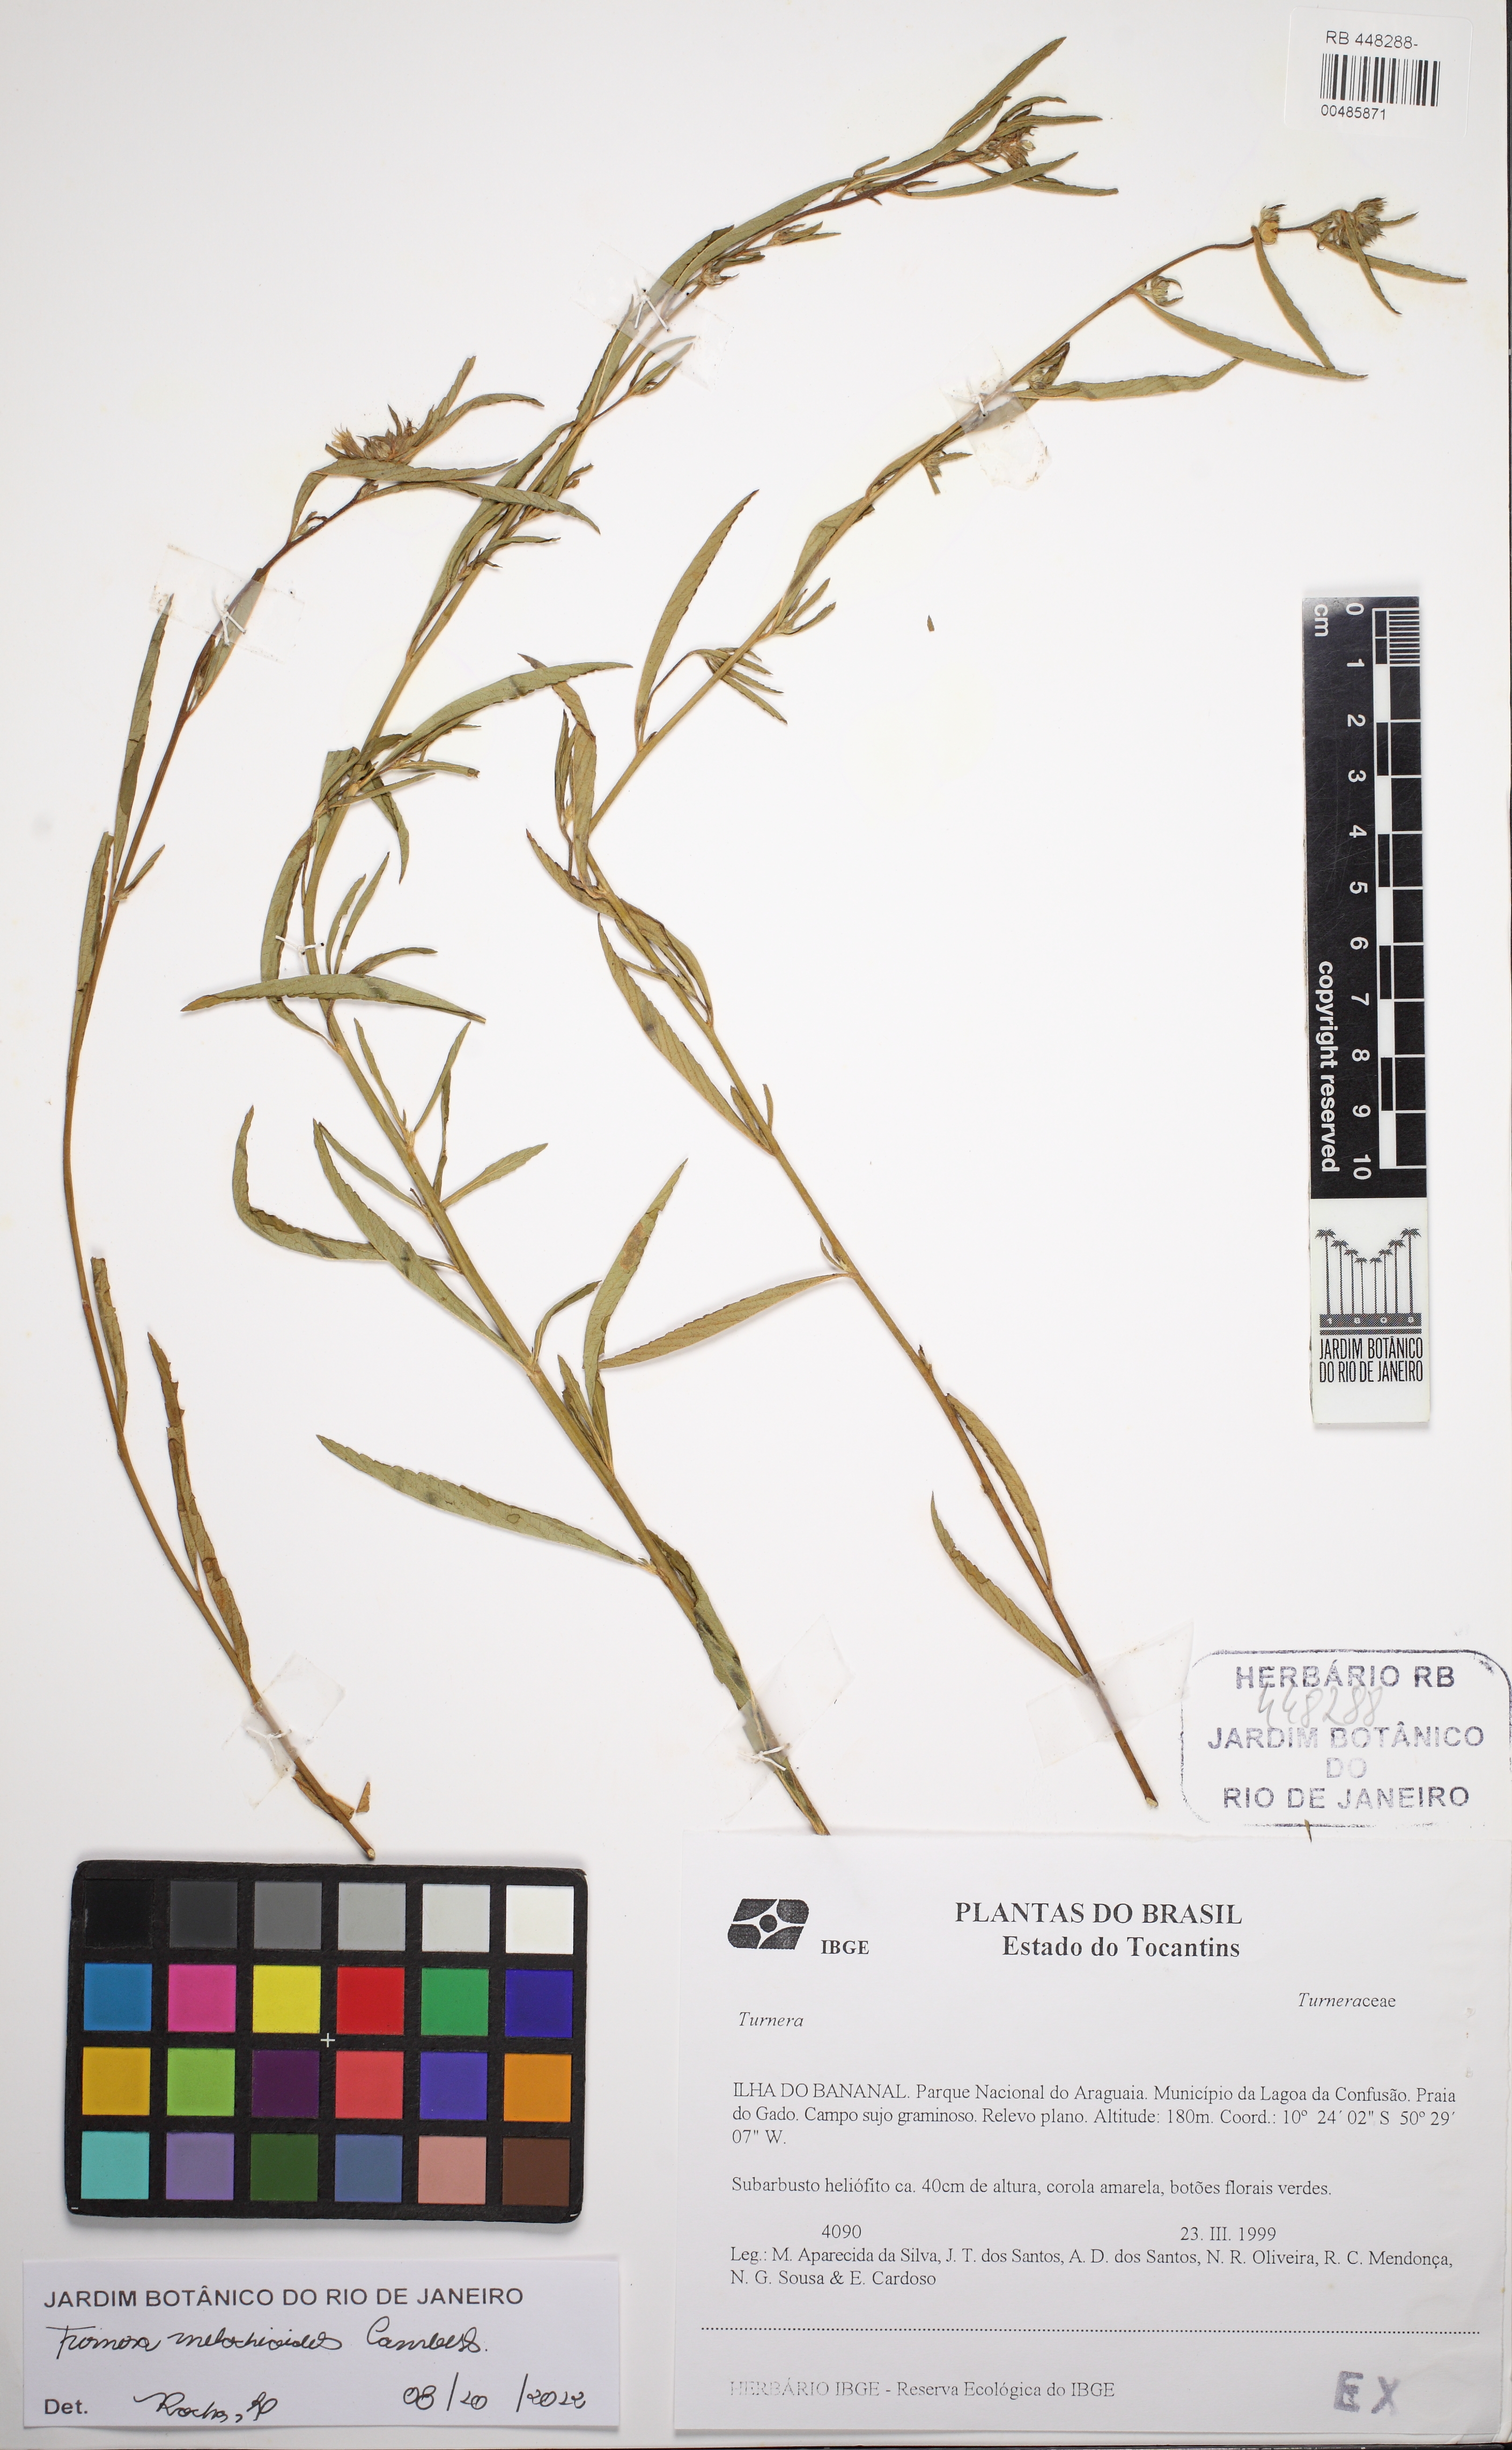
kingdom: Plantae
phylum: Tracheophyta
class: Magnoliopsida
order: Malpighiales
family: Turneraceae
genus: Turnera
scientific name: Turnera melochioides
